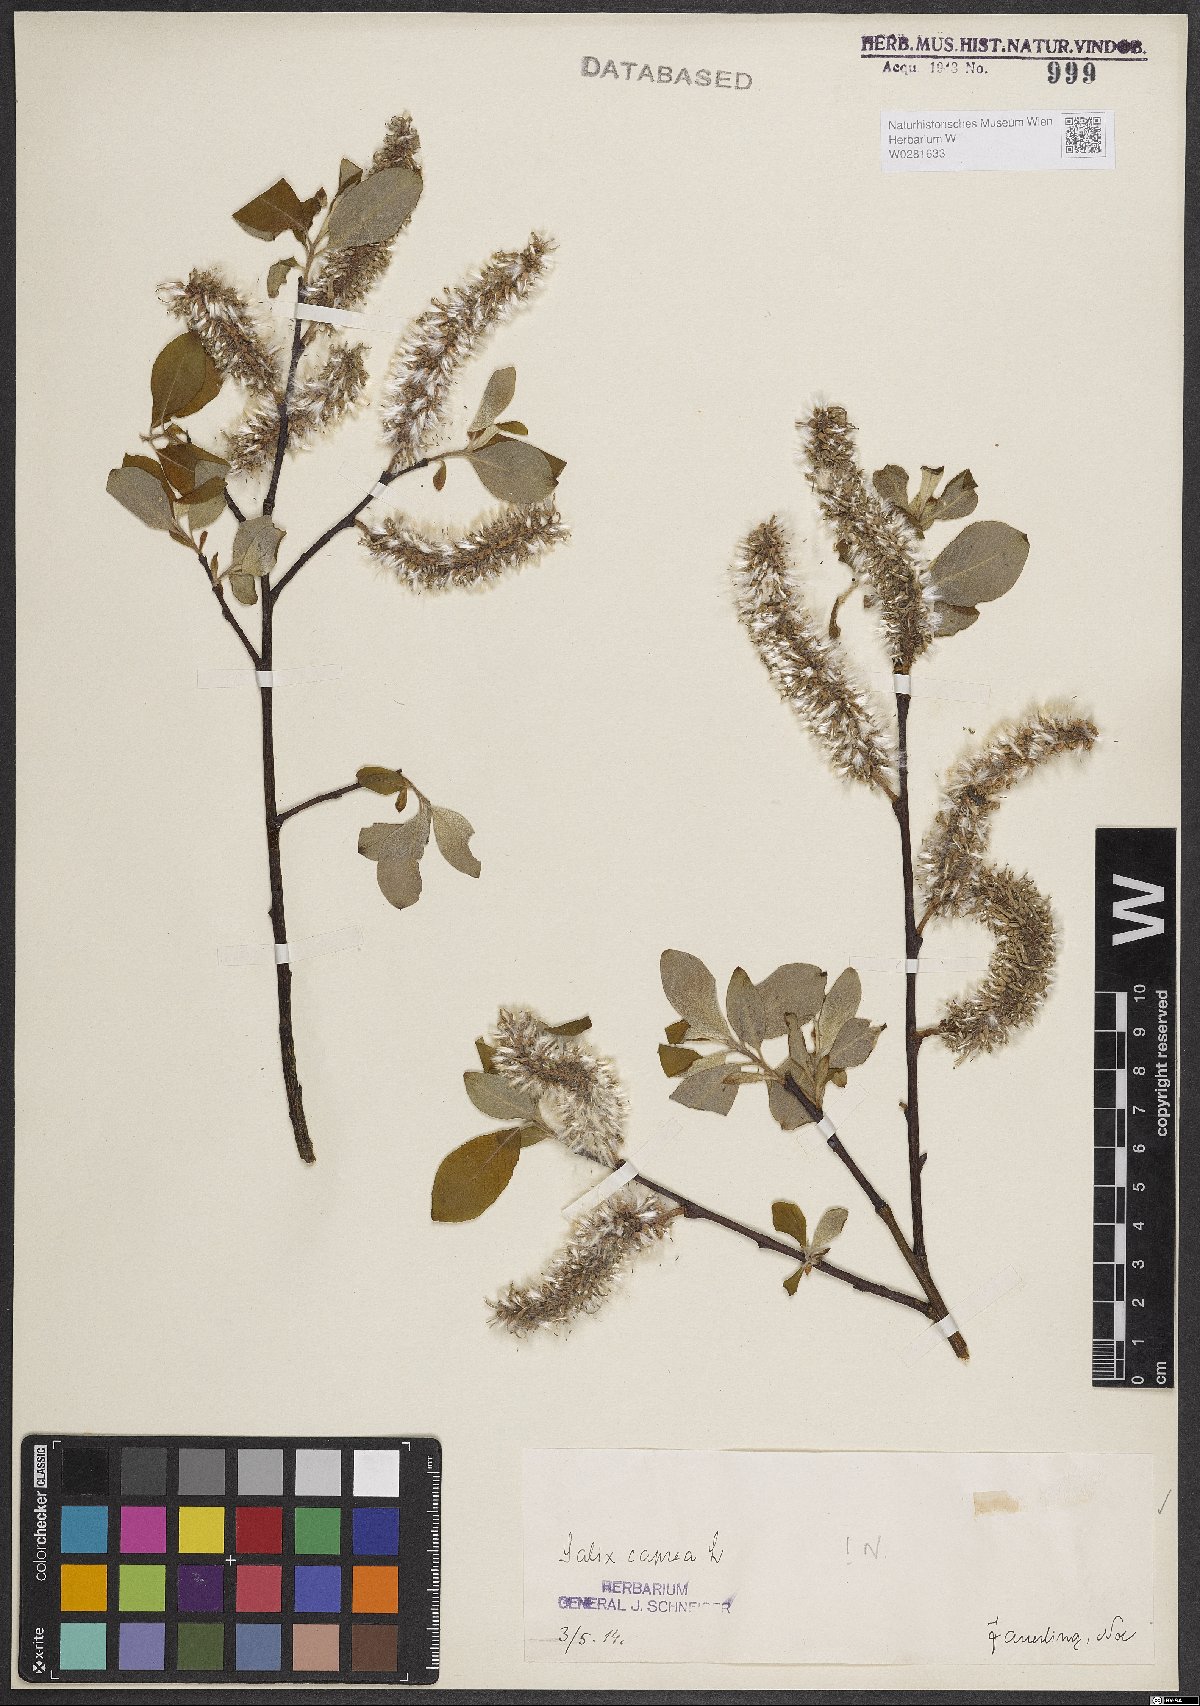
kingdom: Plantae
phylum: Tracheophyta
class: Magnoliopsida
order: Malpighiales
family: Salicaceae
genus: Salix
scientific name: Salix caprea
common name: Goat willow
